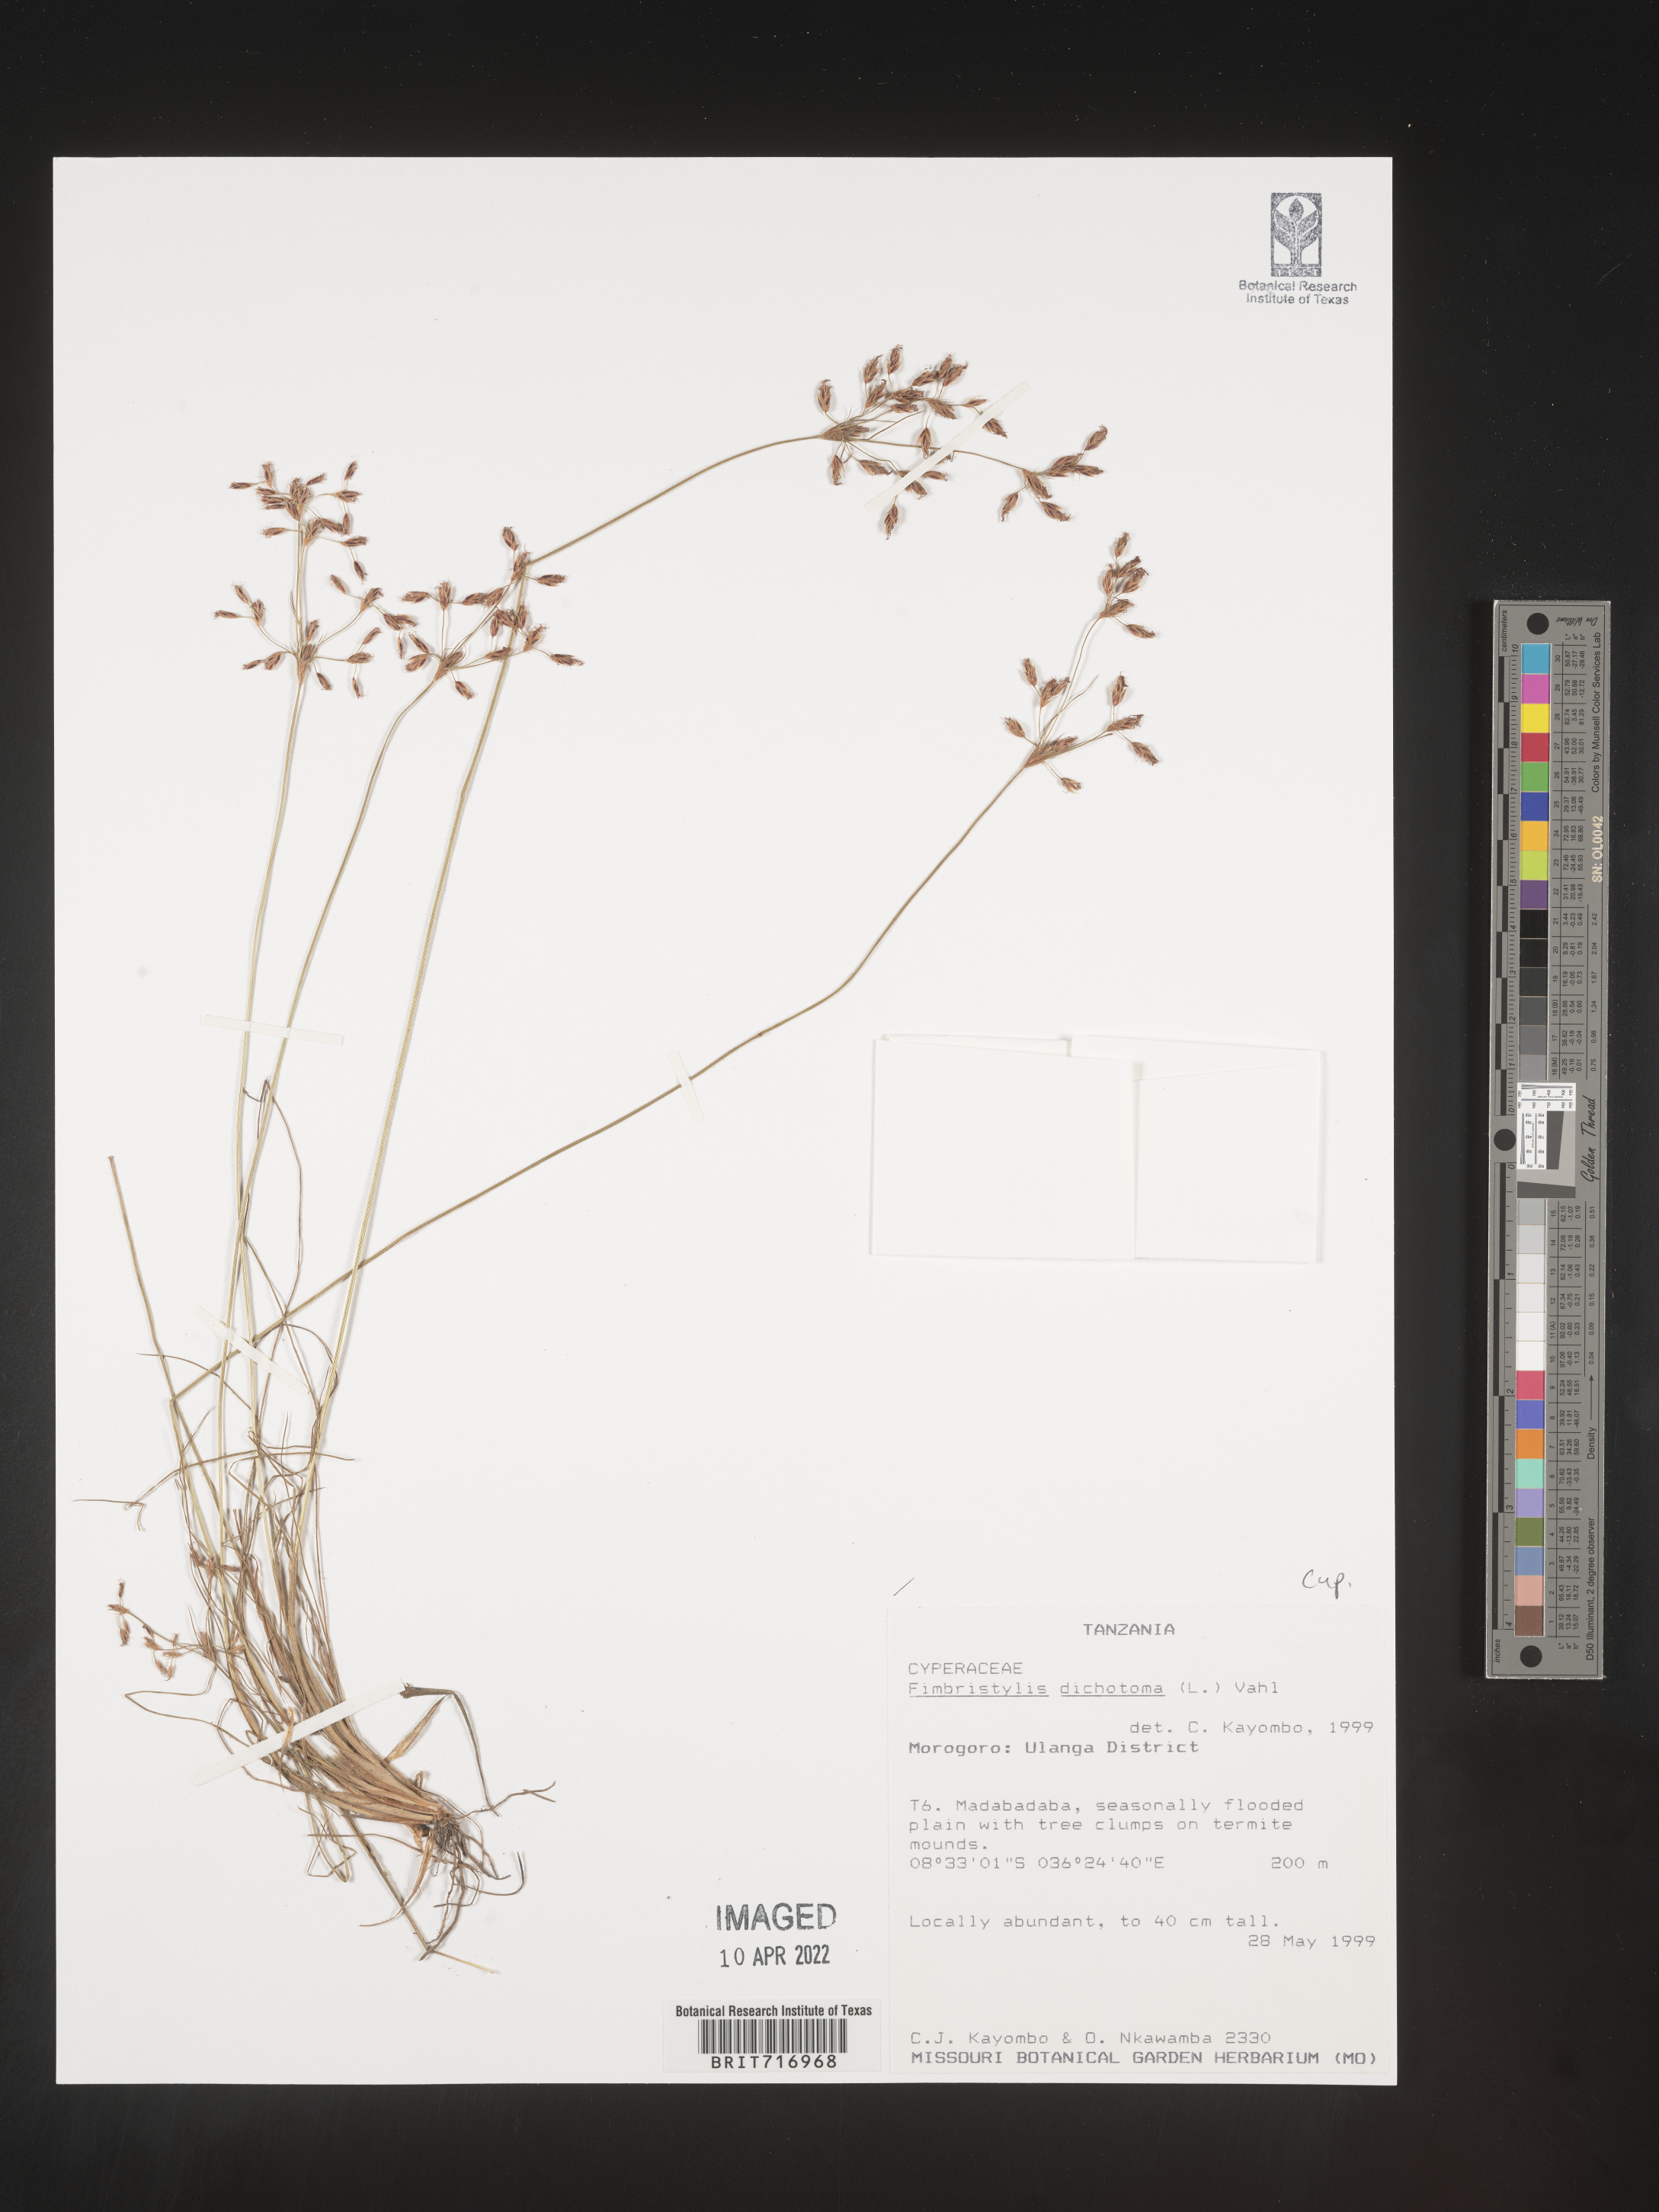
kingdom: Plantae
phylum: Tracheophyta
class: Liliopsida
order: Poales
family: Cyperaceae
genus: Fimbristylis
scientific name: Fimbristylis
